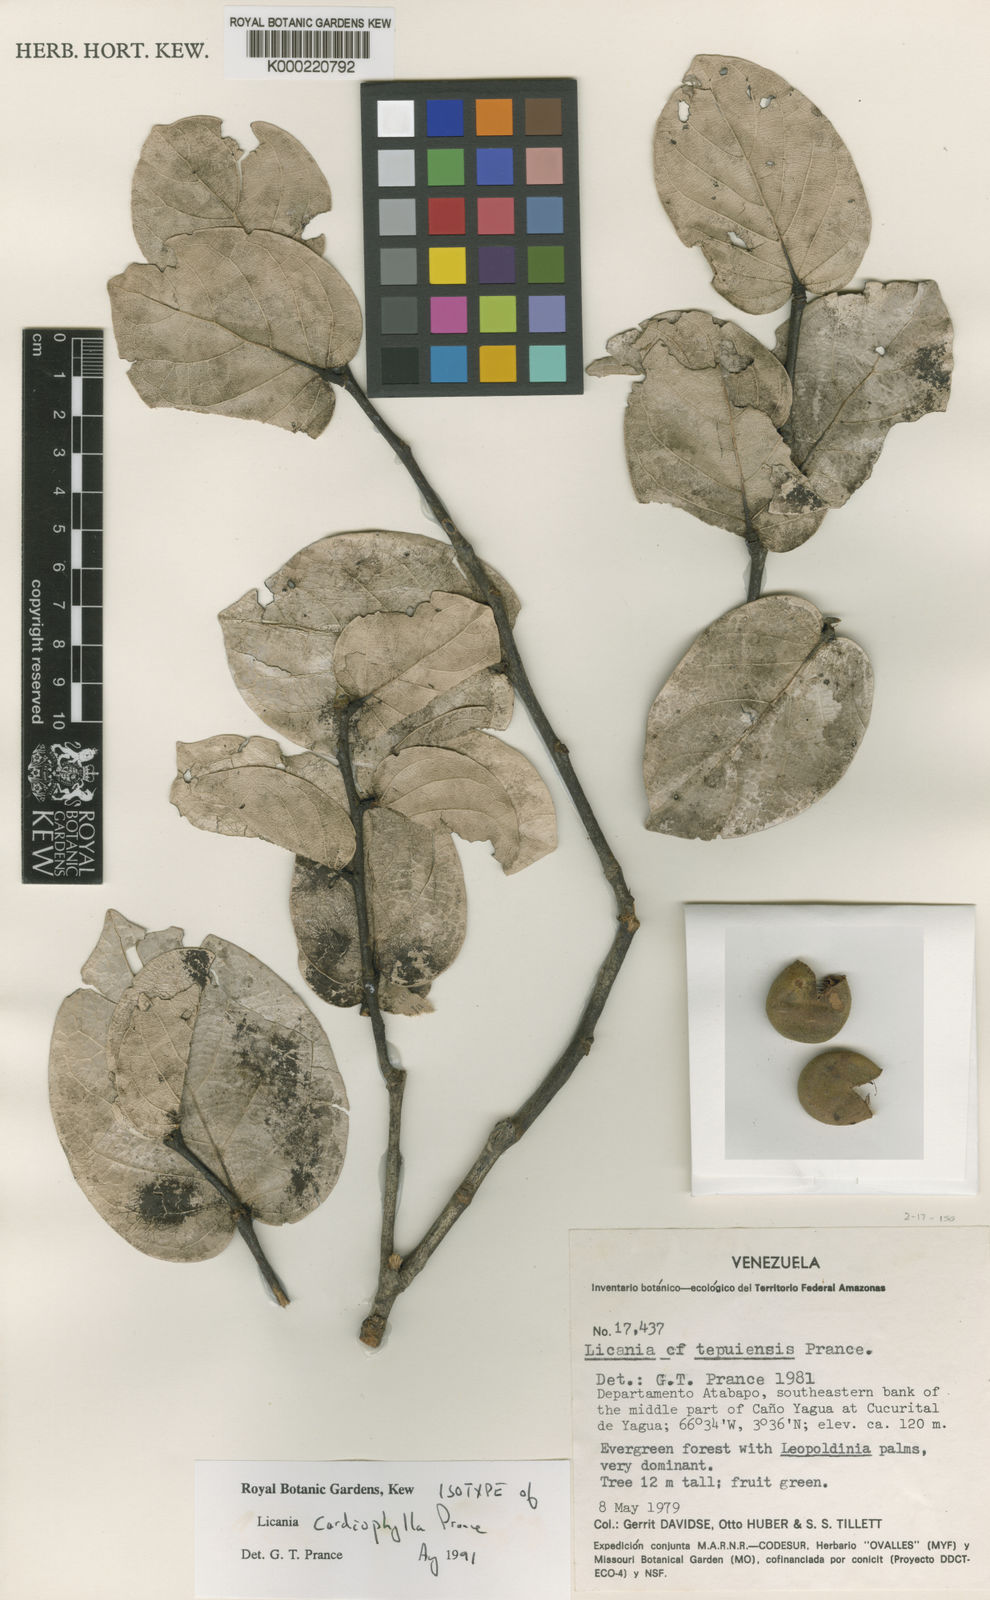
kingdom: Plantae
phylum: Tracheophyta
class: Magnoliopsida
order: Malpighiales
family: Chrysobalanaceae
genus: Leptobalanus
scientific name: Leptobalanus cardiophyllus
